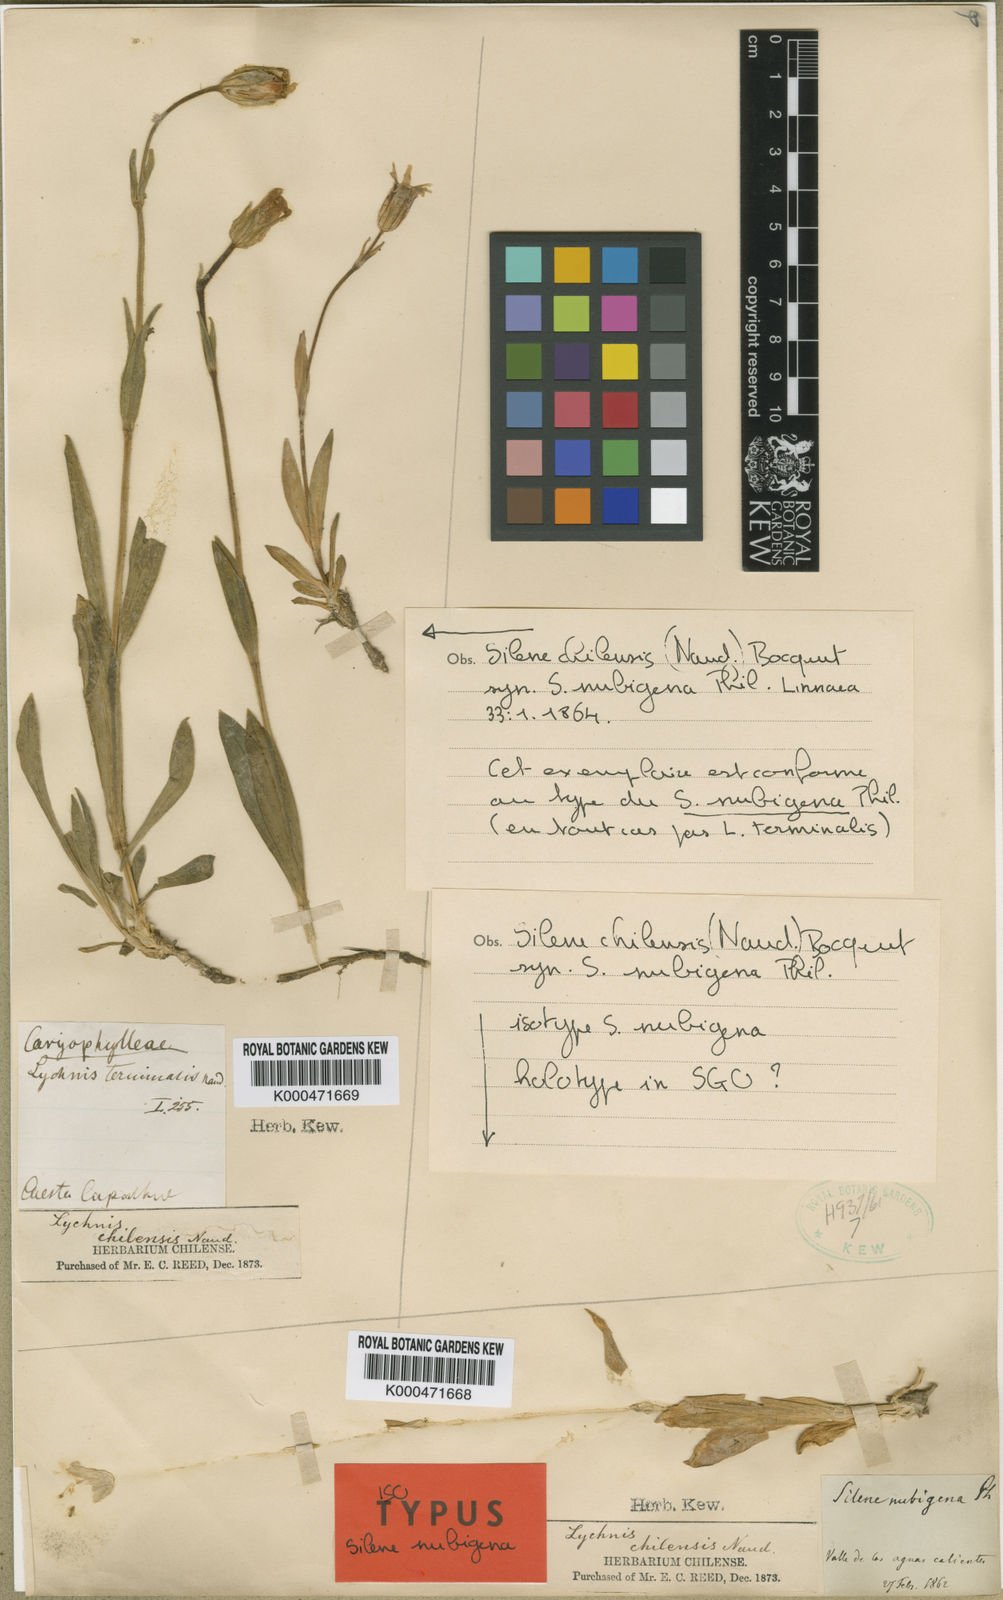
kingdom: Plantae
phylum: Tracheophyta
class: Magnoliopsida
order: Caryophyllales
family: Caryophyllaceae
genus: Silene
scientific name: Silene chilensis
